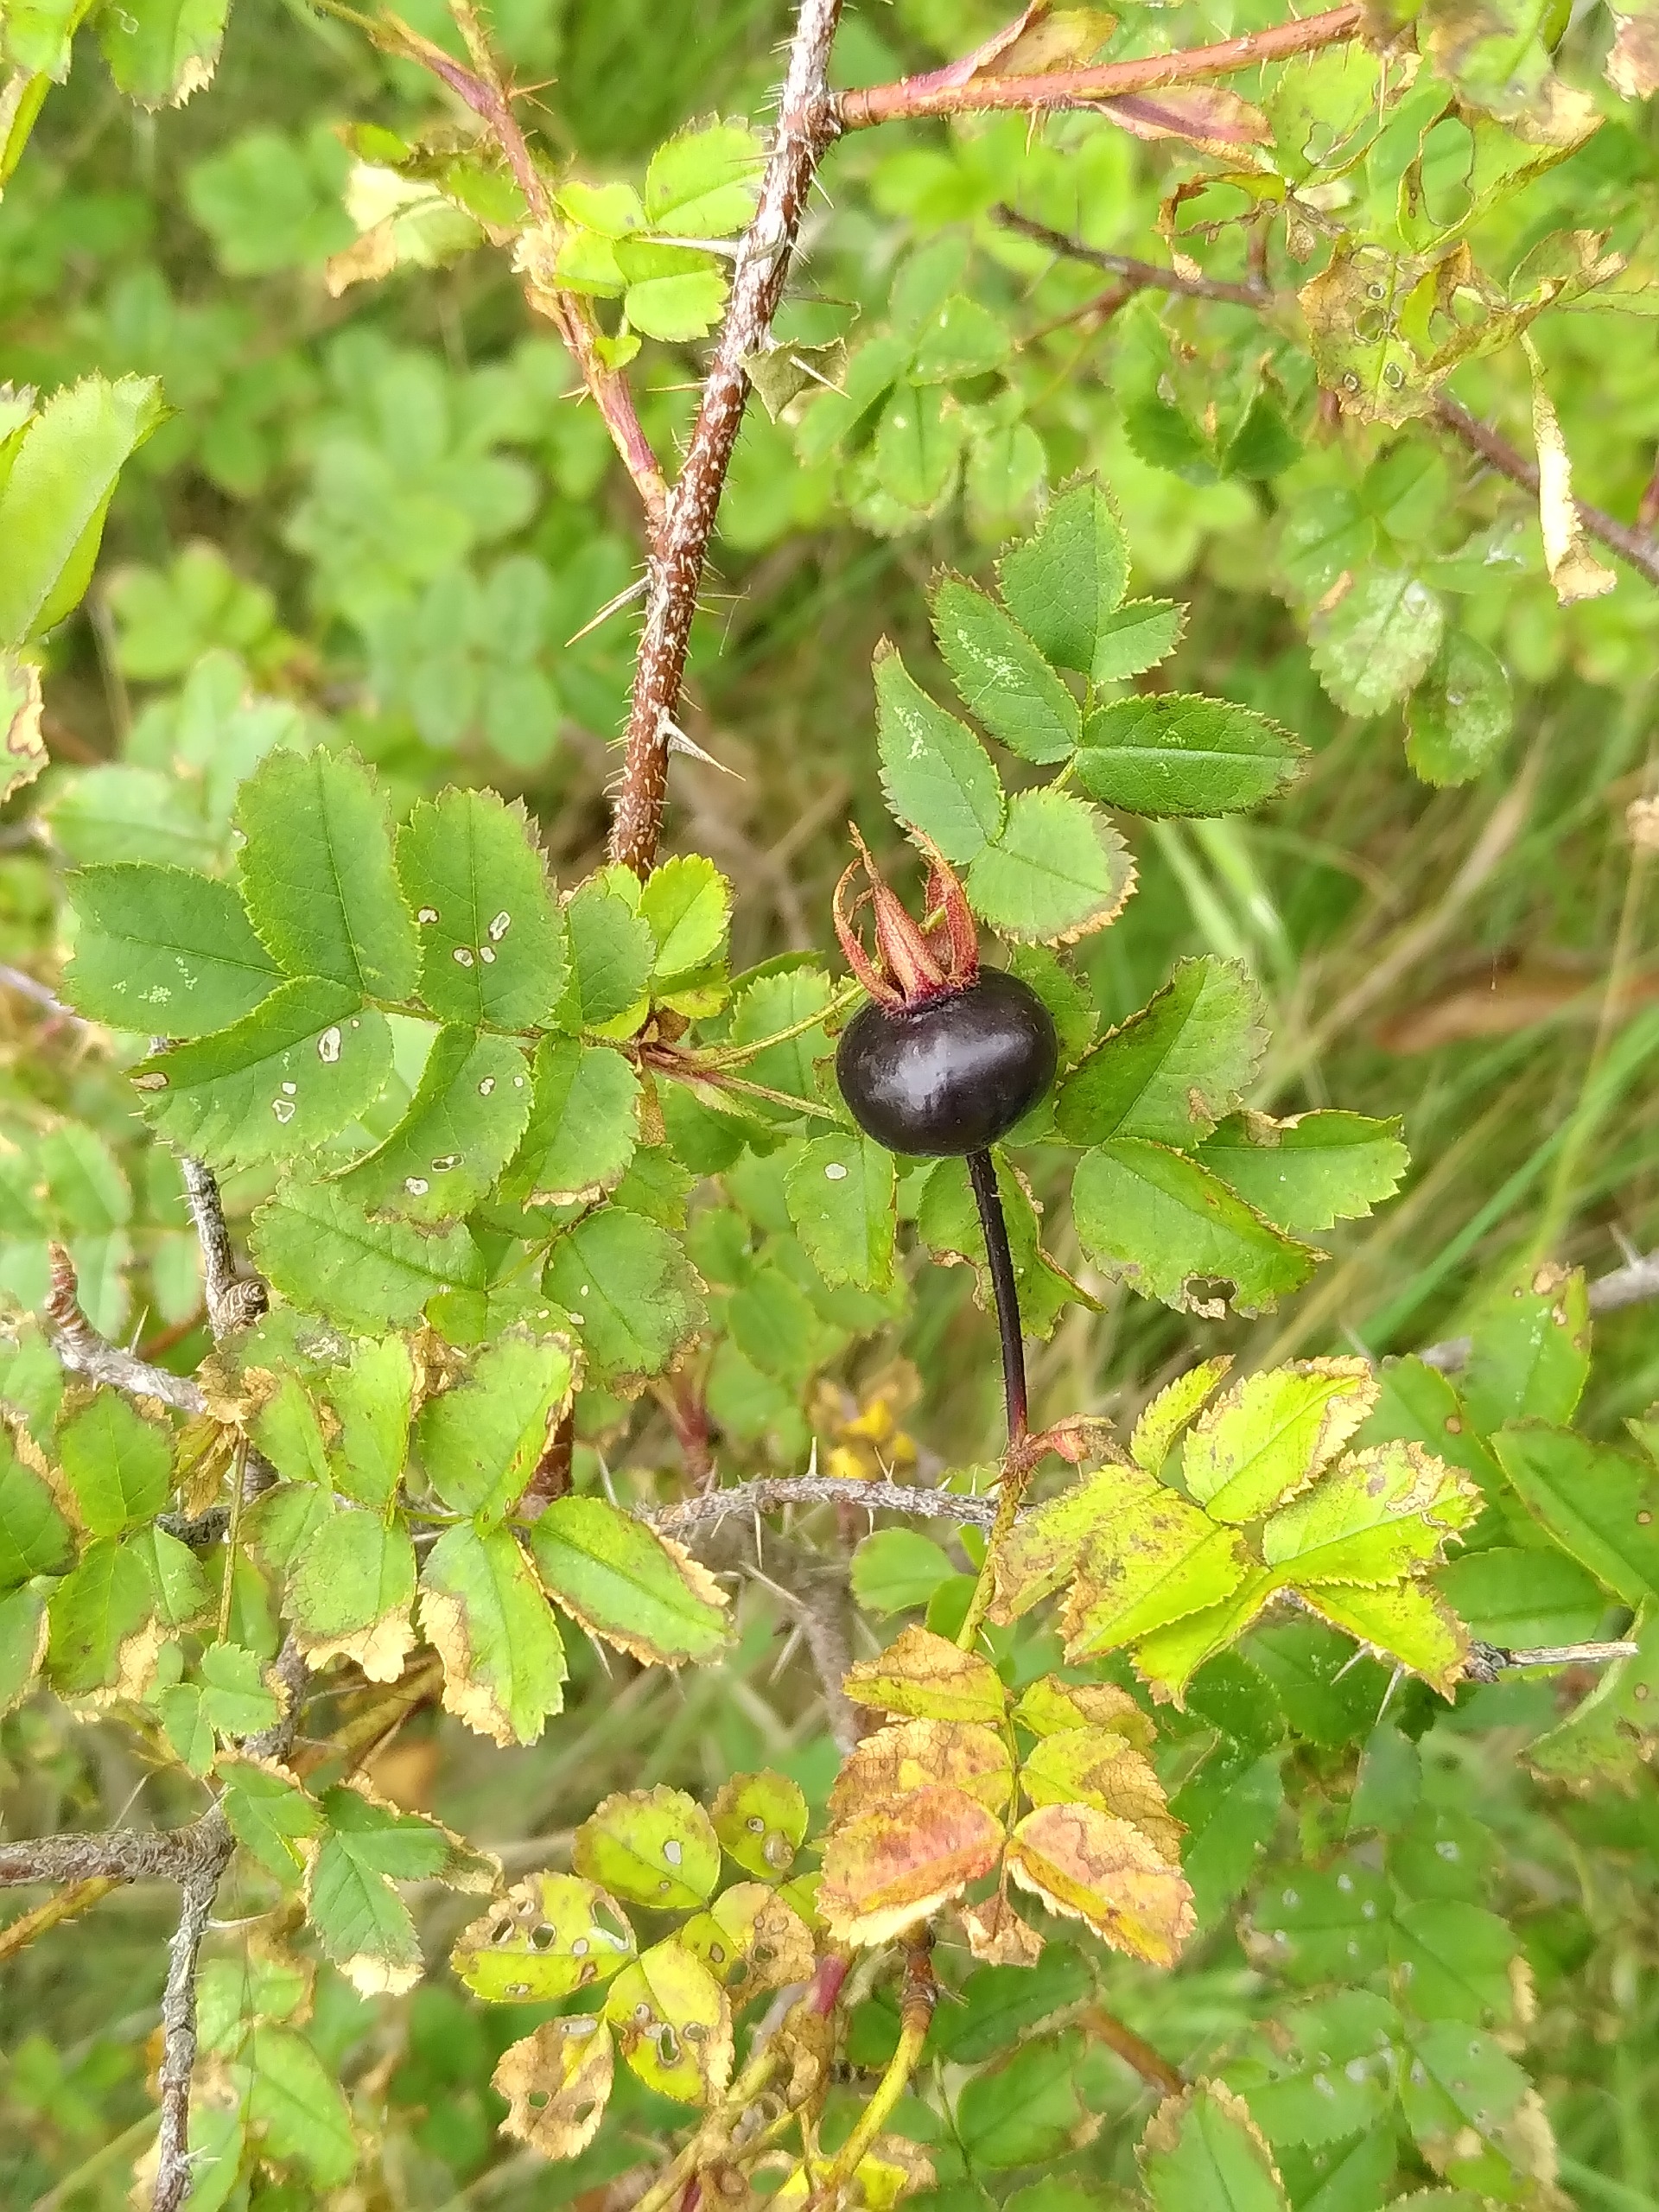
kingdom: Plantae
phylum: Tracheophyta
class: Magnoliopsida
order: Rosales
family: Rosaceae
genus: Rosa
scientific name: Rosa spinosissima
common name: Klit-rose
